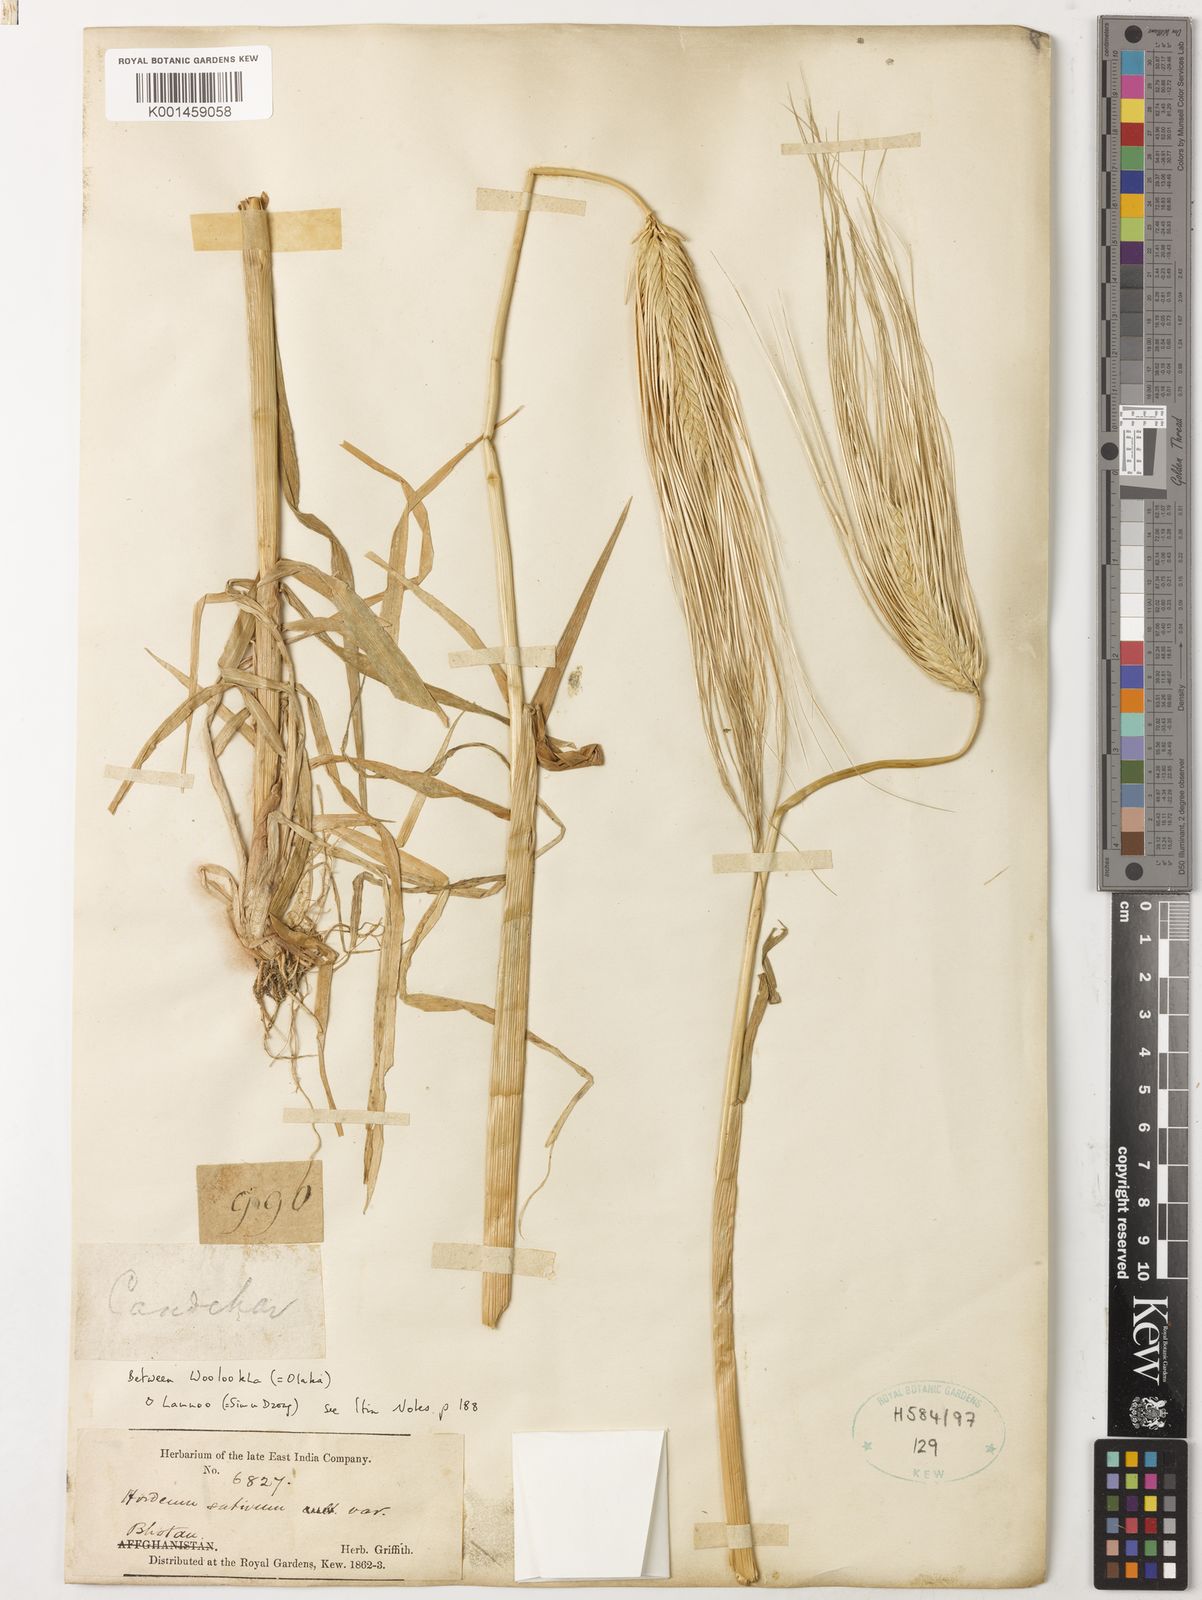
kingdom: Plantae
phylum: Tracheophyta
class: Liliopsida
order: Poales
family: Poaceae
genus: Hordeum
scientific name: Hordeum vulgare
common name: Common barley
